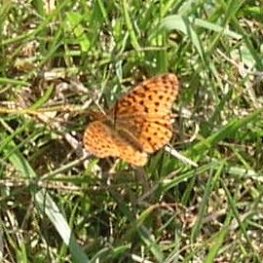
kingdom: Animalia
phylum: Arthropoda
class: Insecta
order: Lepidoptera
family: Nymphalidae
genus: Clossiana
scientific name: Clossiana toddi
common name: Meadow Fritillary
